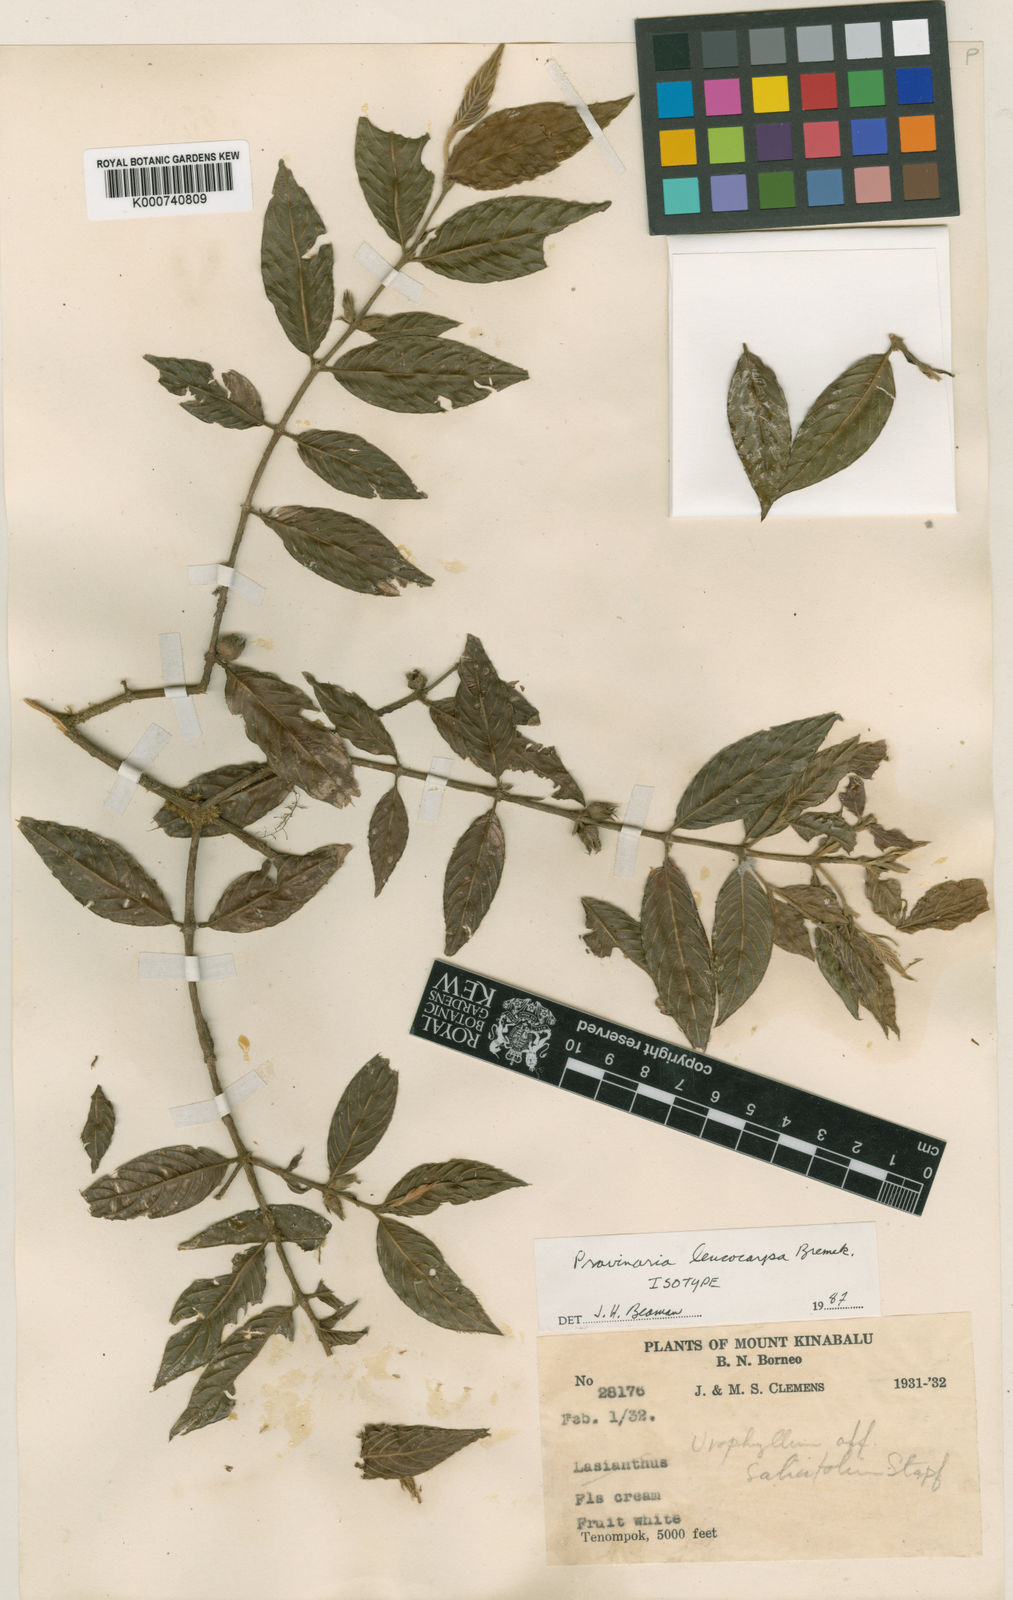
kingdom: Plantae
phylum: Tracheophyta
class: Magnoliopsida
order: Gentianales
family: Rubiaceae
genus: Urophyllum
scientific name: Urophyllum leucocarpum
